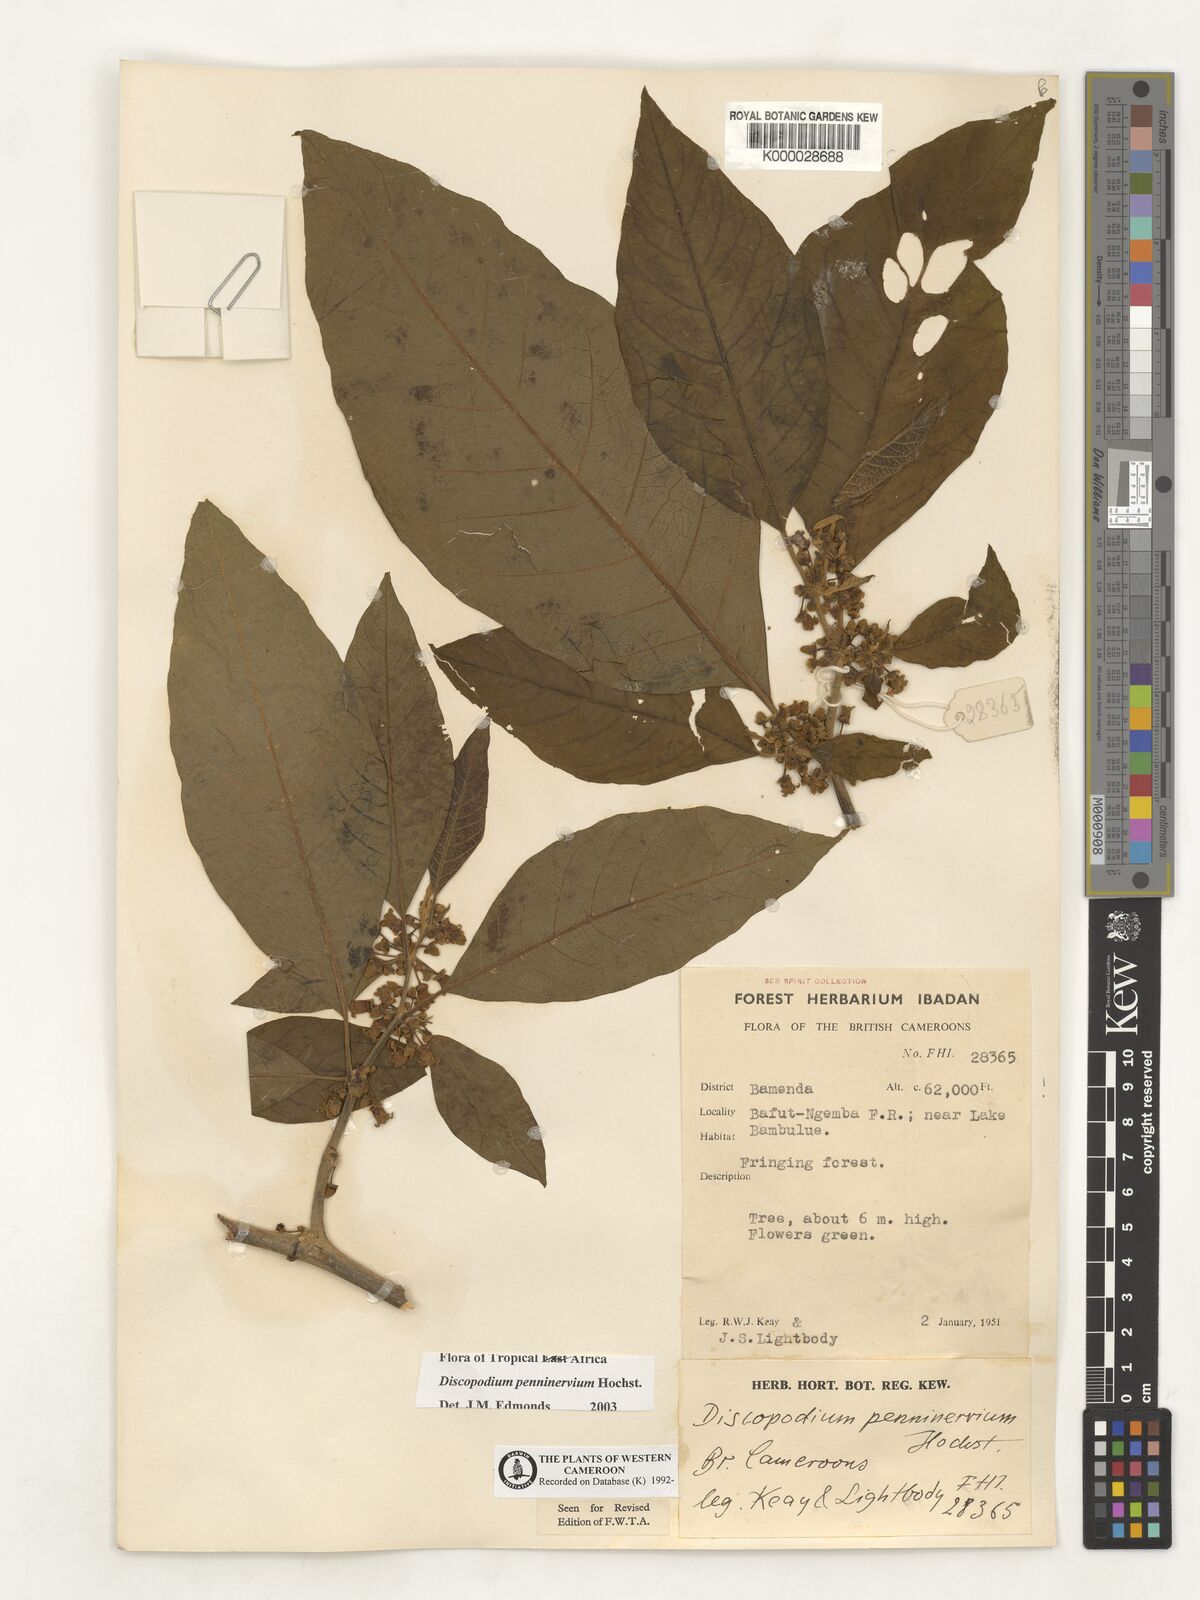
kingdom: Plantae
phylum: Tracheophyta
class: Magnoliopsida
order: Solanales
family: Solanaceae
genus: Discopodium
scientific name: Discopodium penninervium
